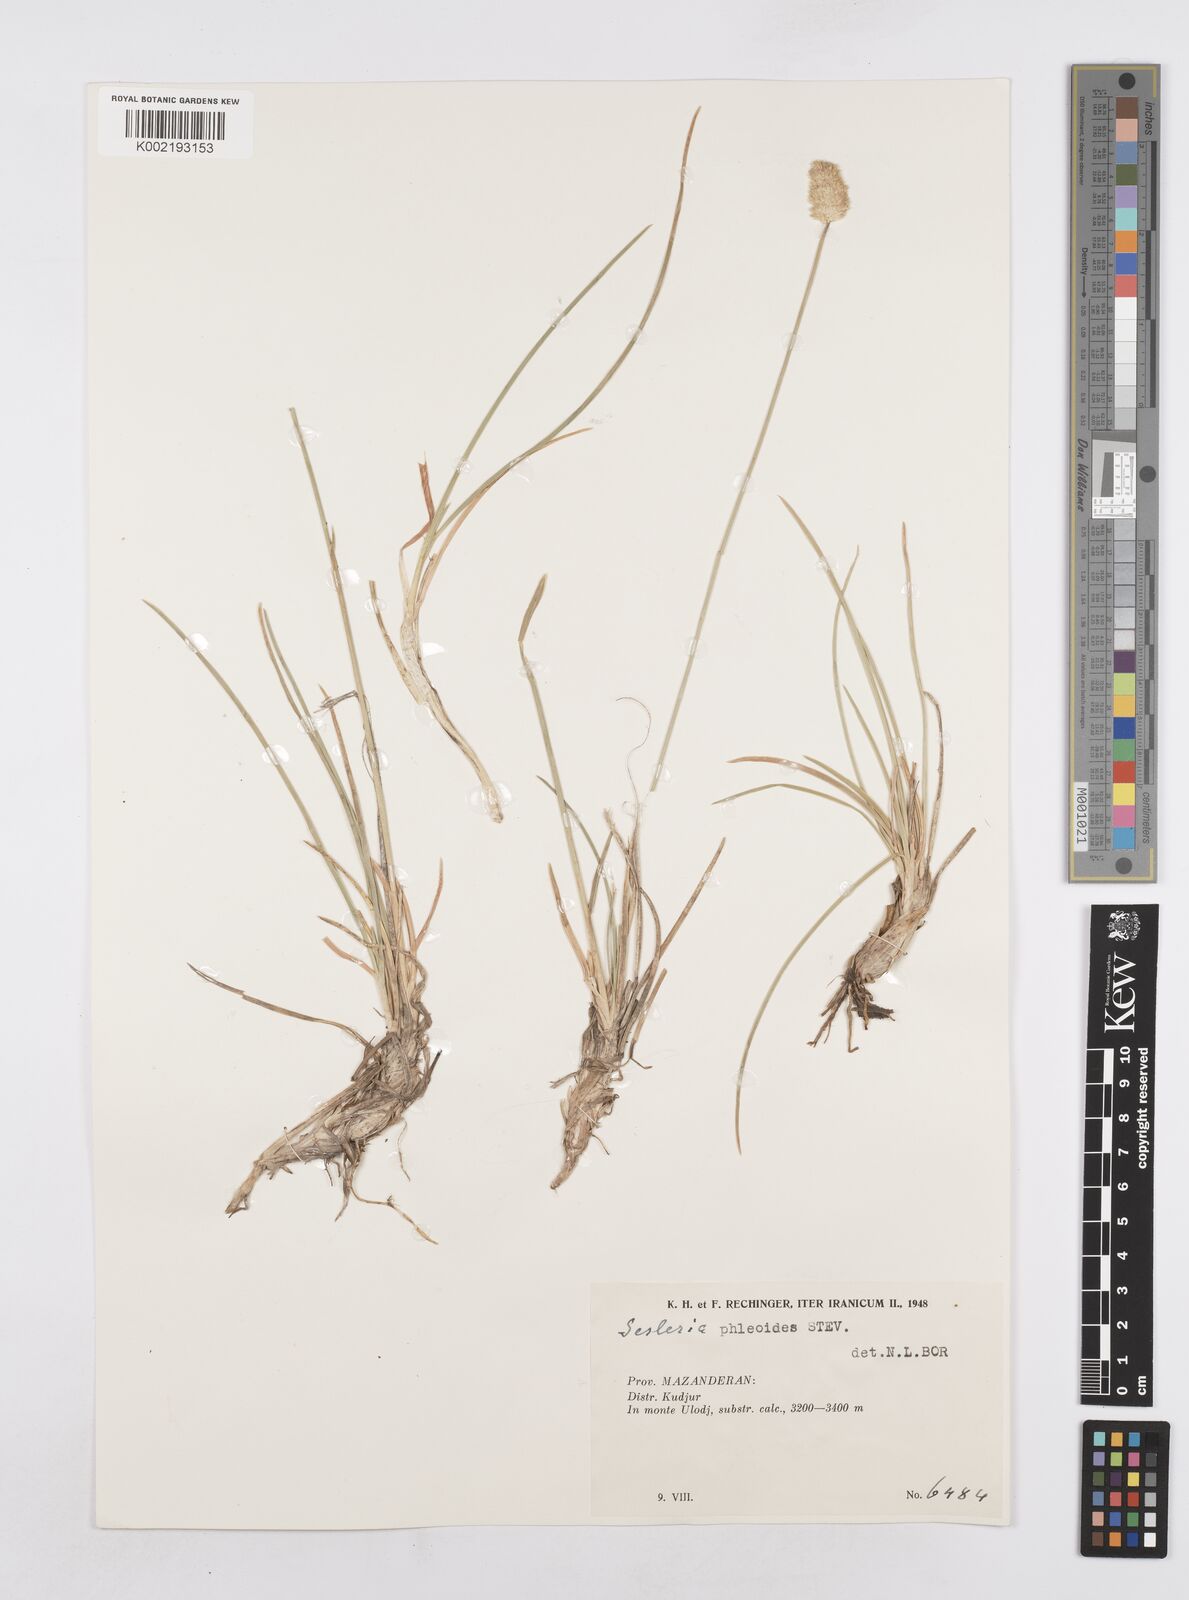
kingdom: Plantae
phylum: Tracheophyta
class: Liliopsida
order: Poales
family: Poaceae
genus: Sesleria
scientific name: Sesleria phleoides
